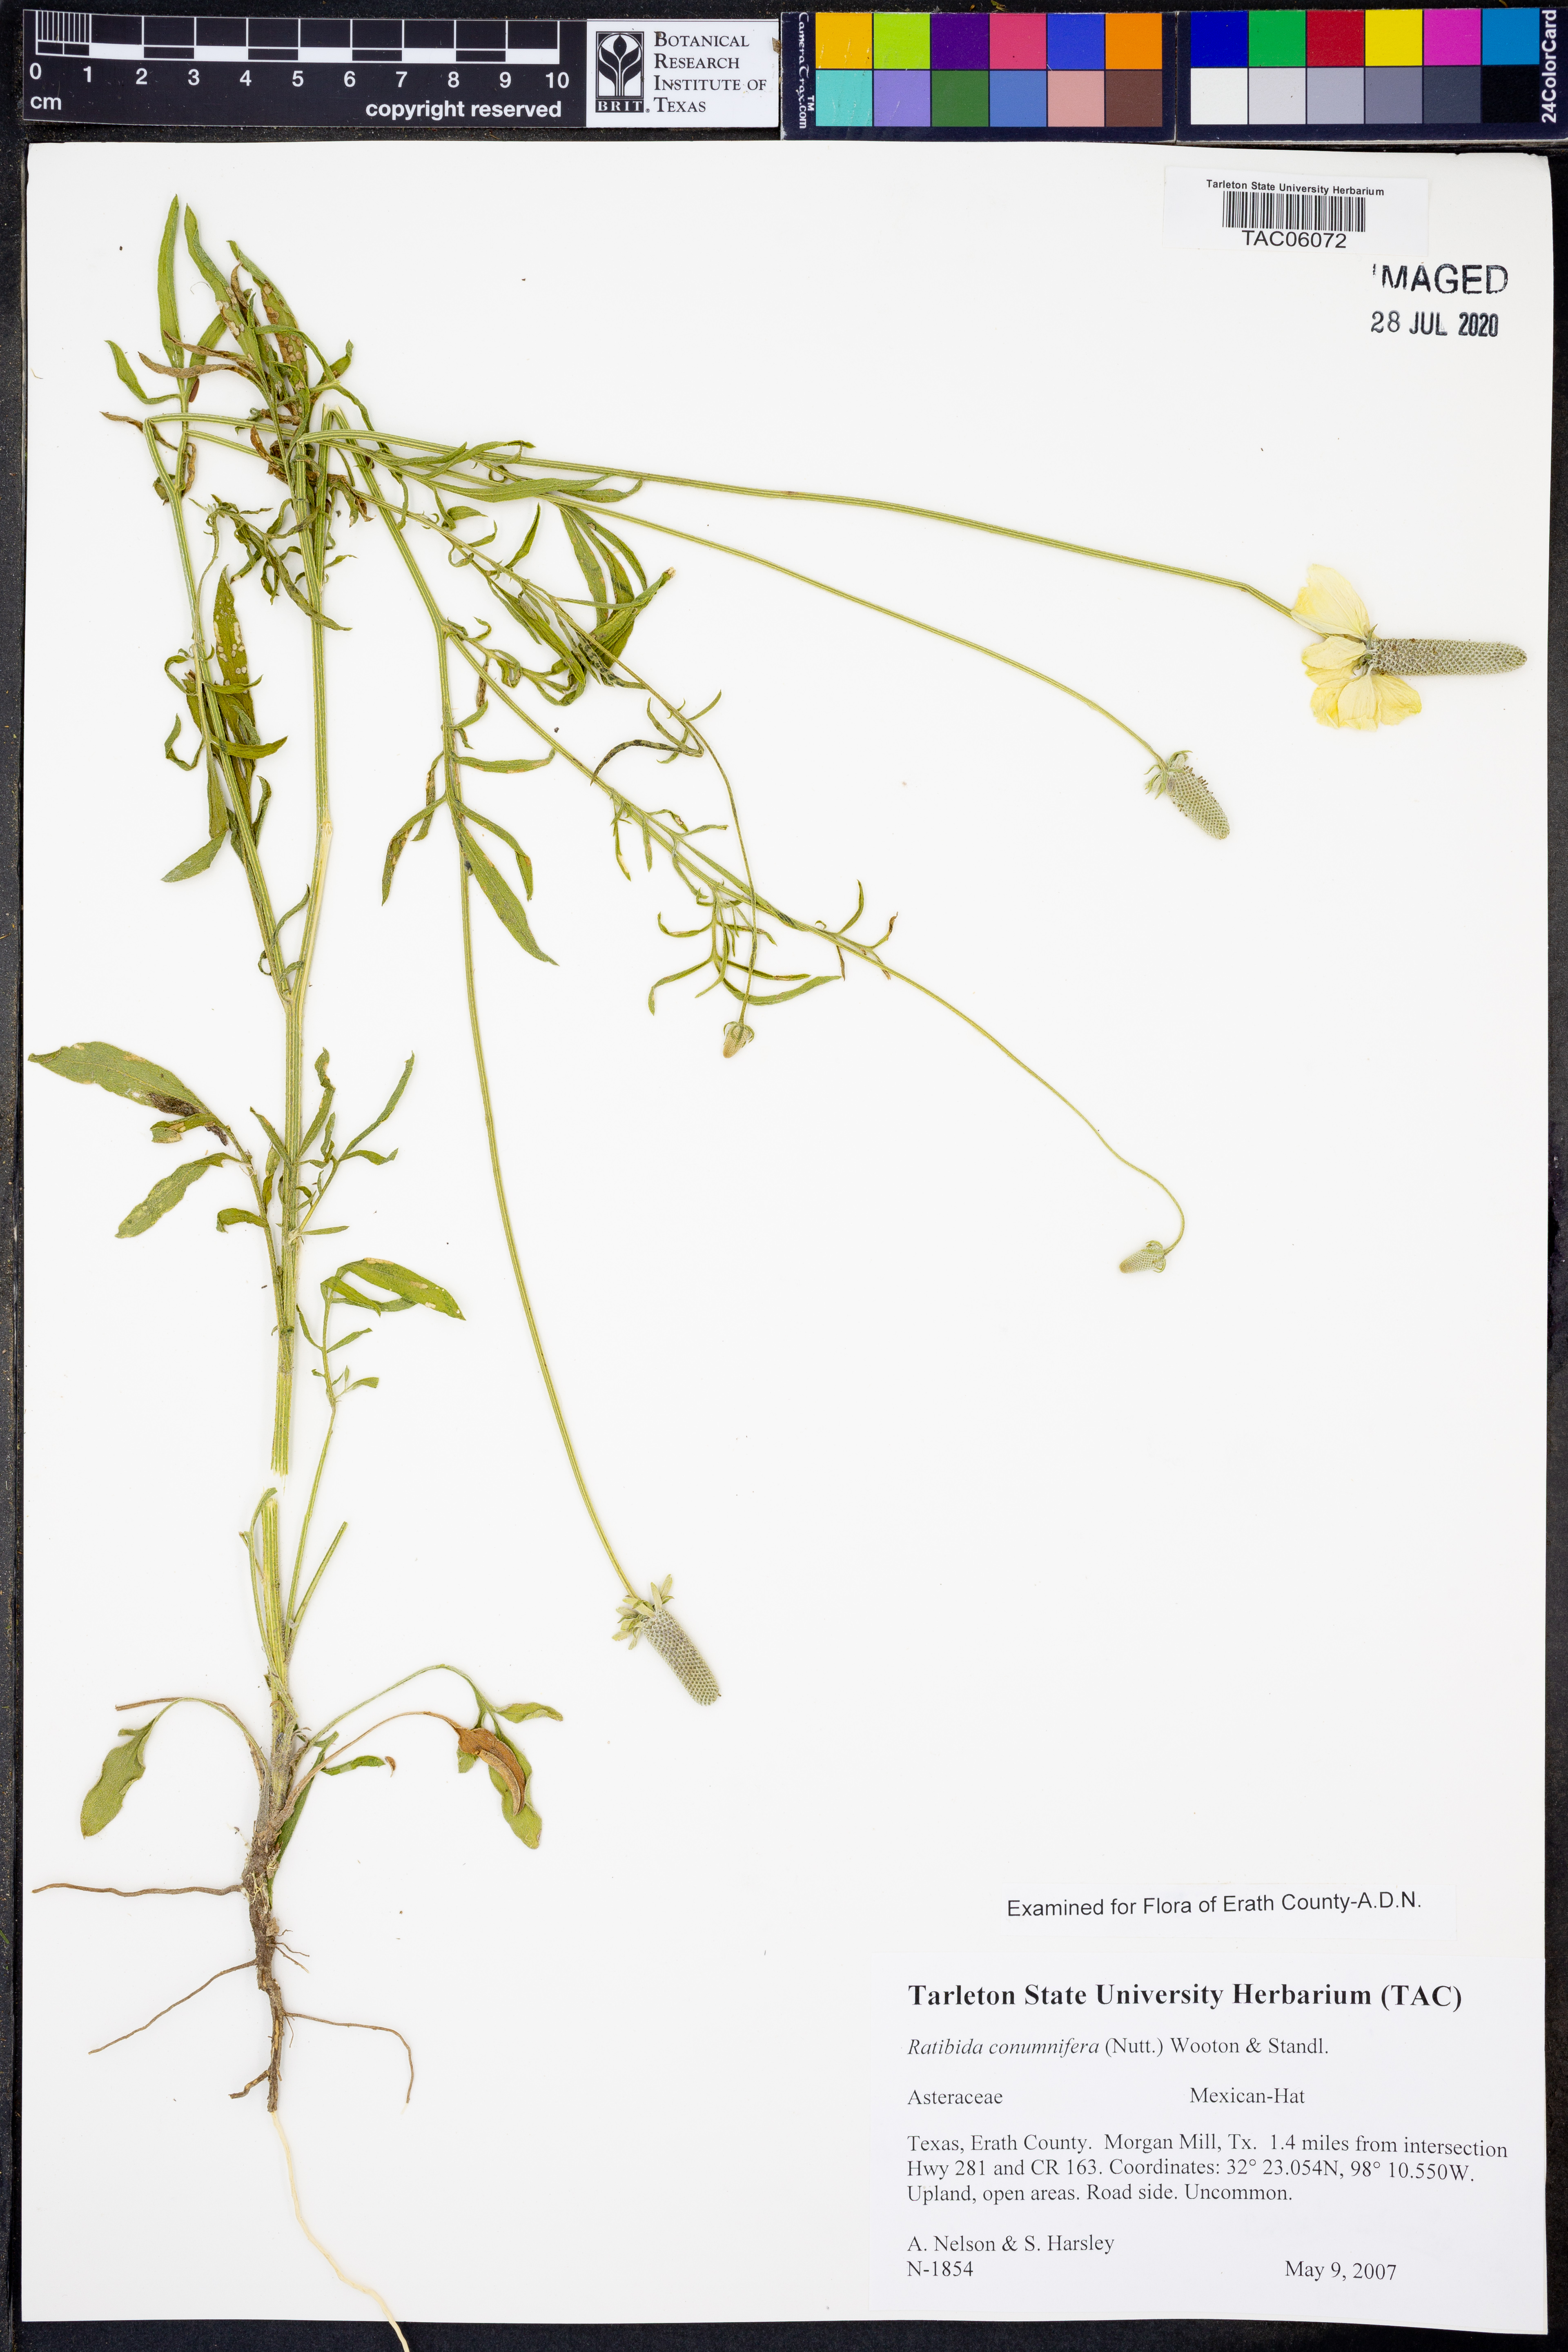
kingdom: Plantae
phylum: Tracheophyta
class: Magnoliopsida
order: Asterales
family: Asteraceae
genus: Ratibida
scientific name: Ratibida columnifera
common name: Prairie coneflower
